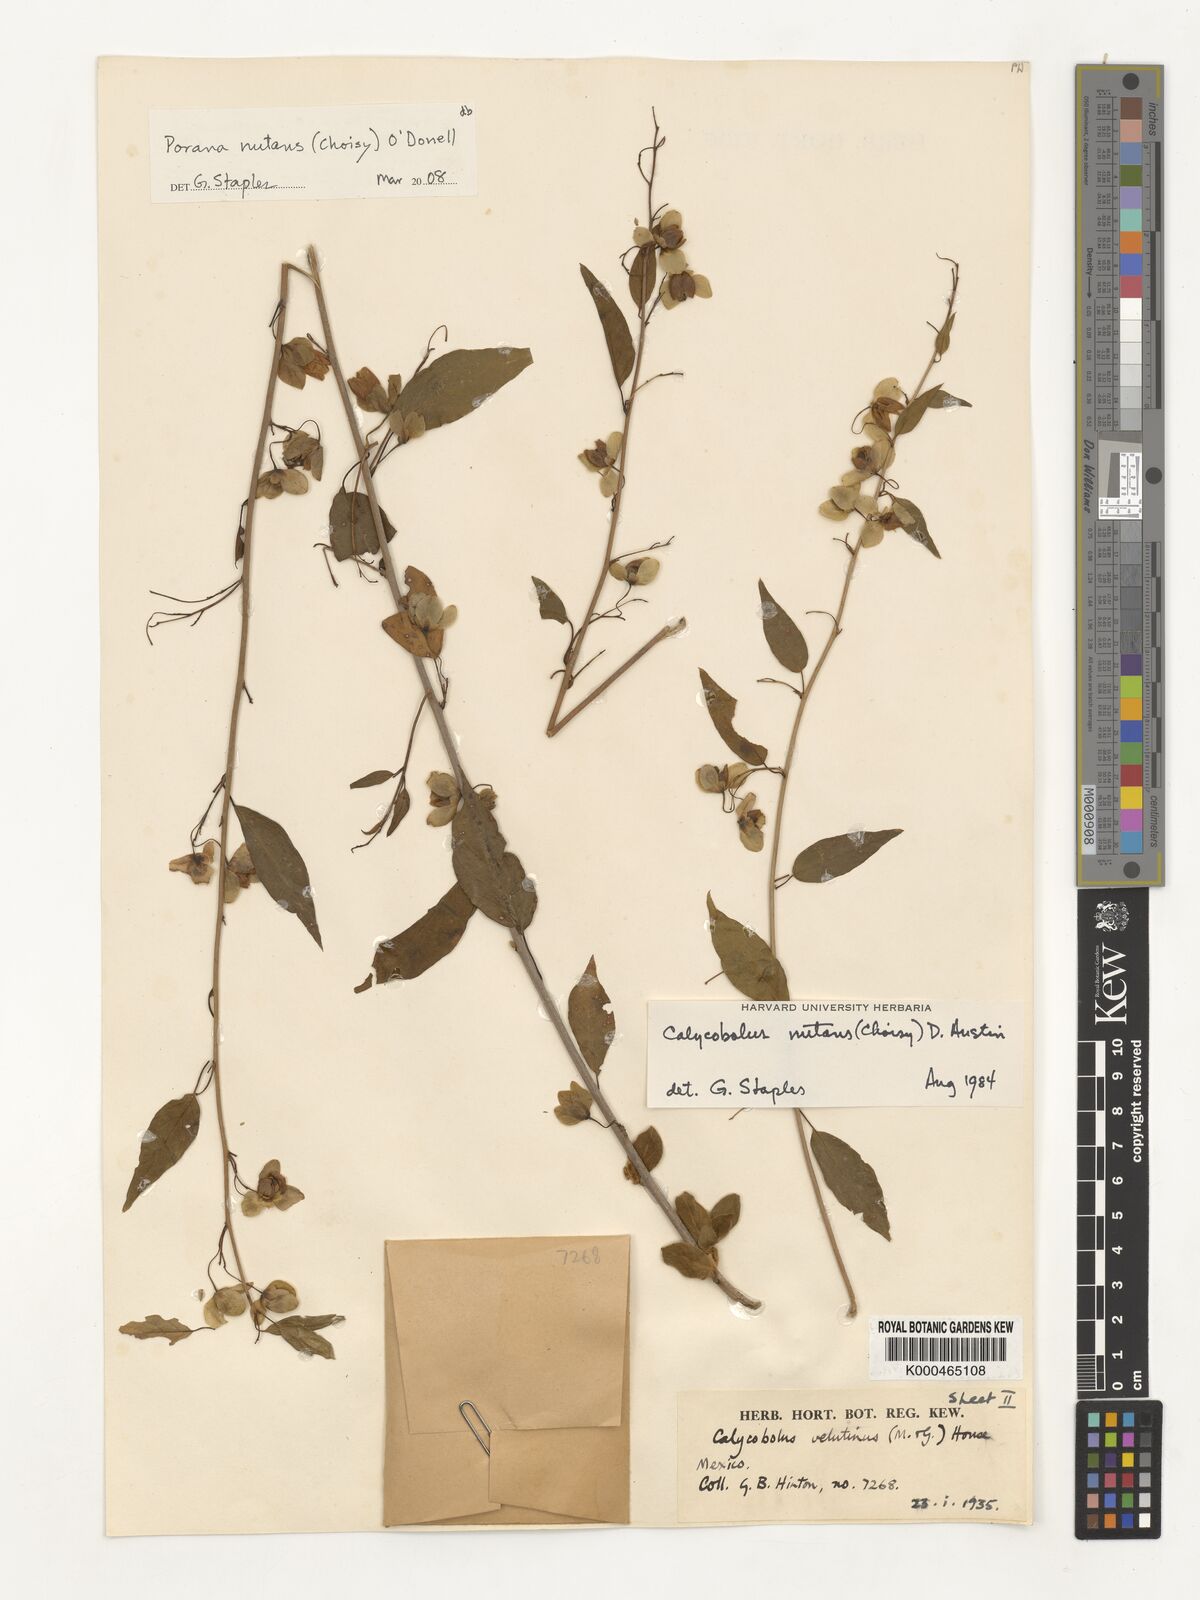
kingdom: Plantae
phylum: Tracheophyta
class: Magnoliopsida
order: Solanales
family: Convolvulaceae
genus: Calycobolus
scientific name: Calycobolus
